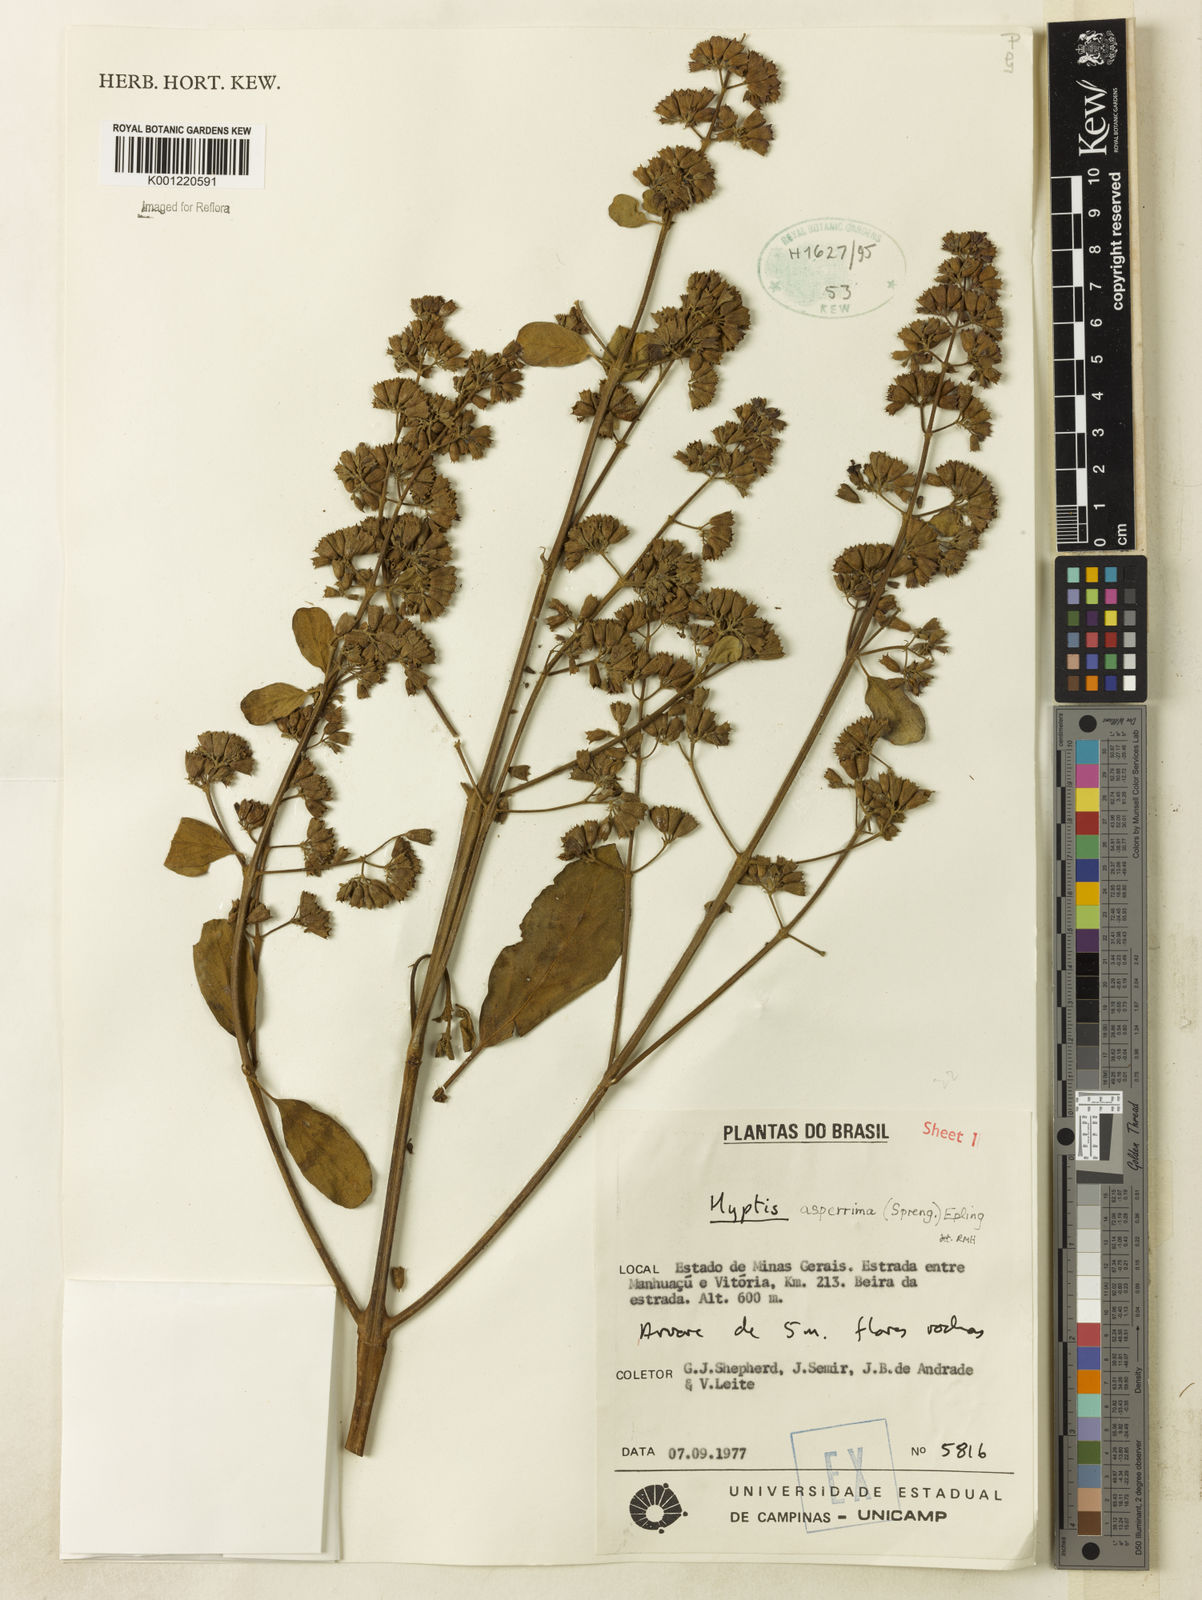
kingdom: Plantae
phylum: Tracheophyta
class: Magnoliopsida
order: Lamiales
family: Lamiaceae
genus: Hyptidendron
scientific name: Hyptidendron asperrimum
